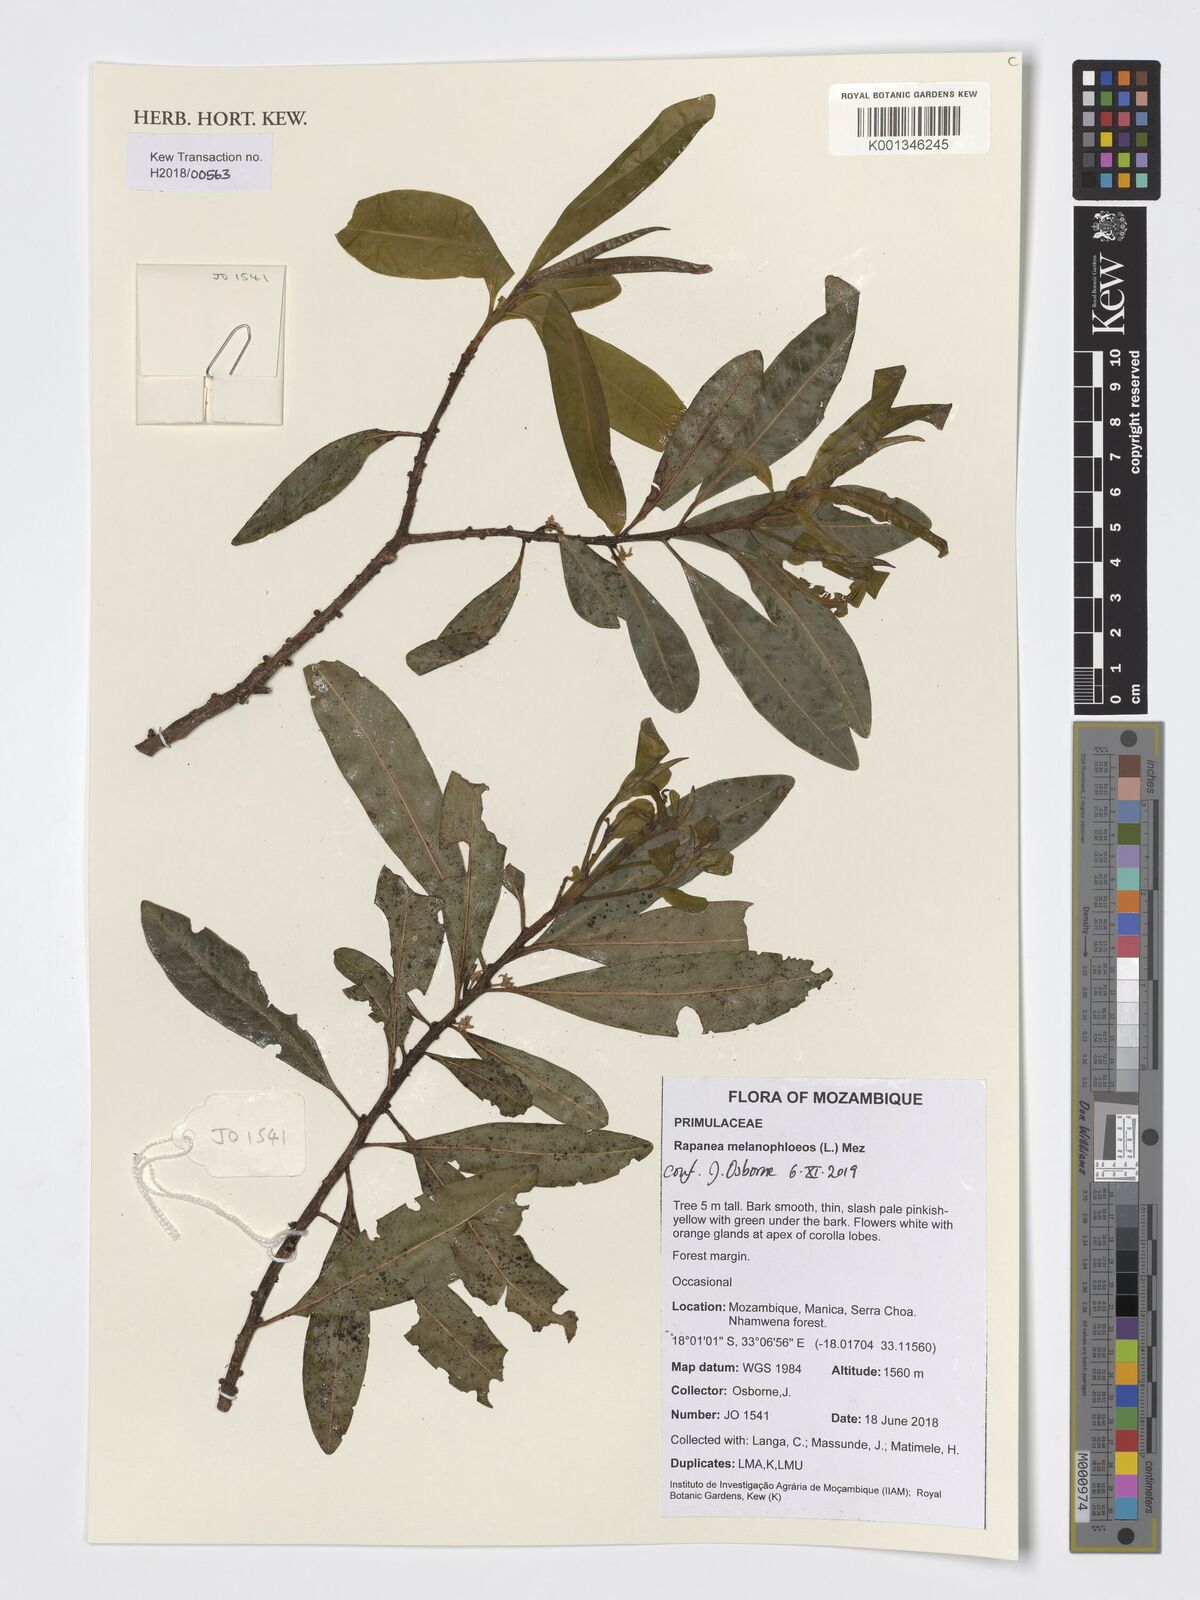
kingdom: Plantae
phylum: Tracheophyta
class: Magnoliopsida
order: Ericales
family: Primulaceae
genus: Myrsine
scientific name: Myrsine melanophloeos
